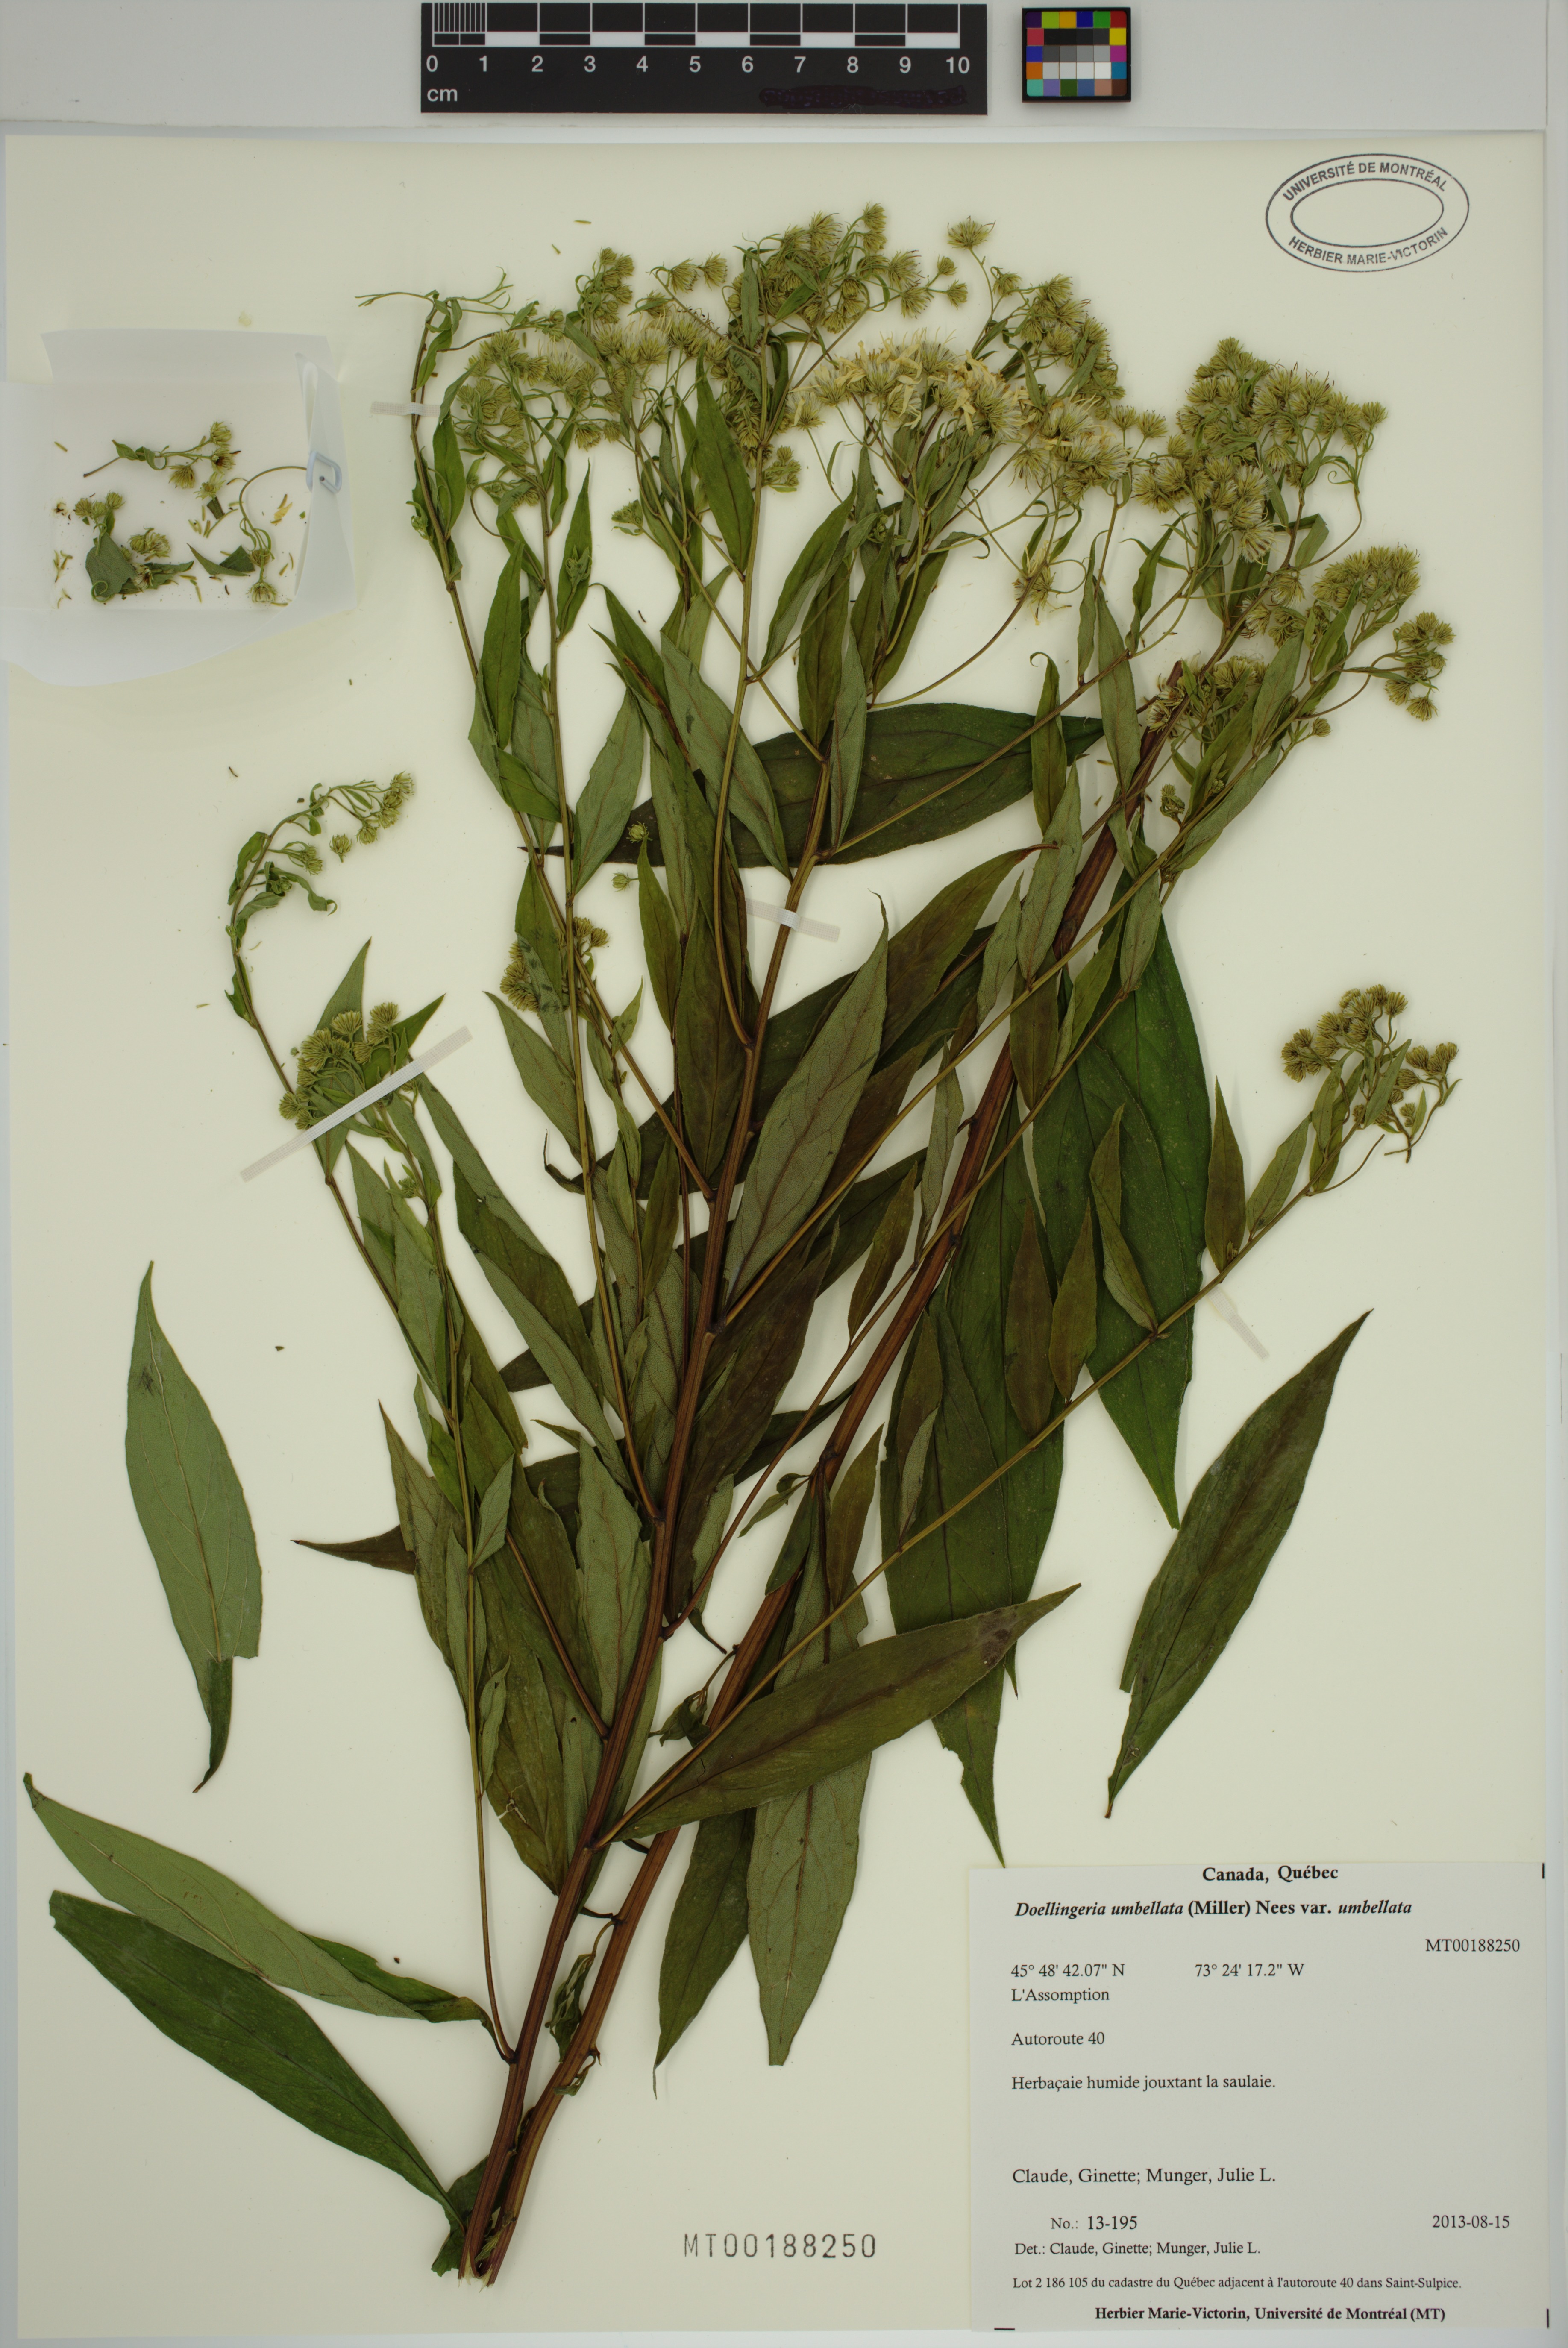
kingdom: Plantae
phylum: Tracheophyta
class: Magnoliopsida
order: Asterales
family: Asteraceae
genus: Doellingeria
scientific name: Doellingeria umbellata
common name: Flat-top white aster
